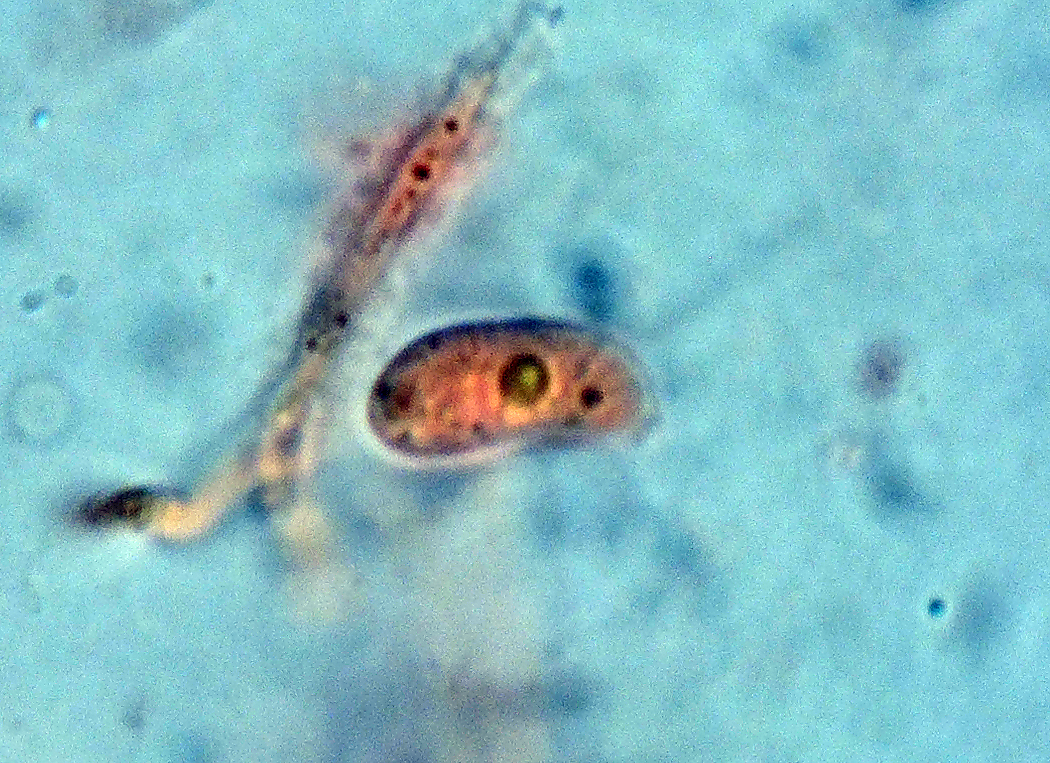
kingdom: Fungi
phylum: Basidiomycota
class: Dacrymycetes
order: Dacrymycetales
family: Dacrymycetaceae
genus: Dacrymyces
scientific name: Dacrymyces
